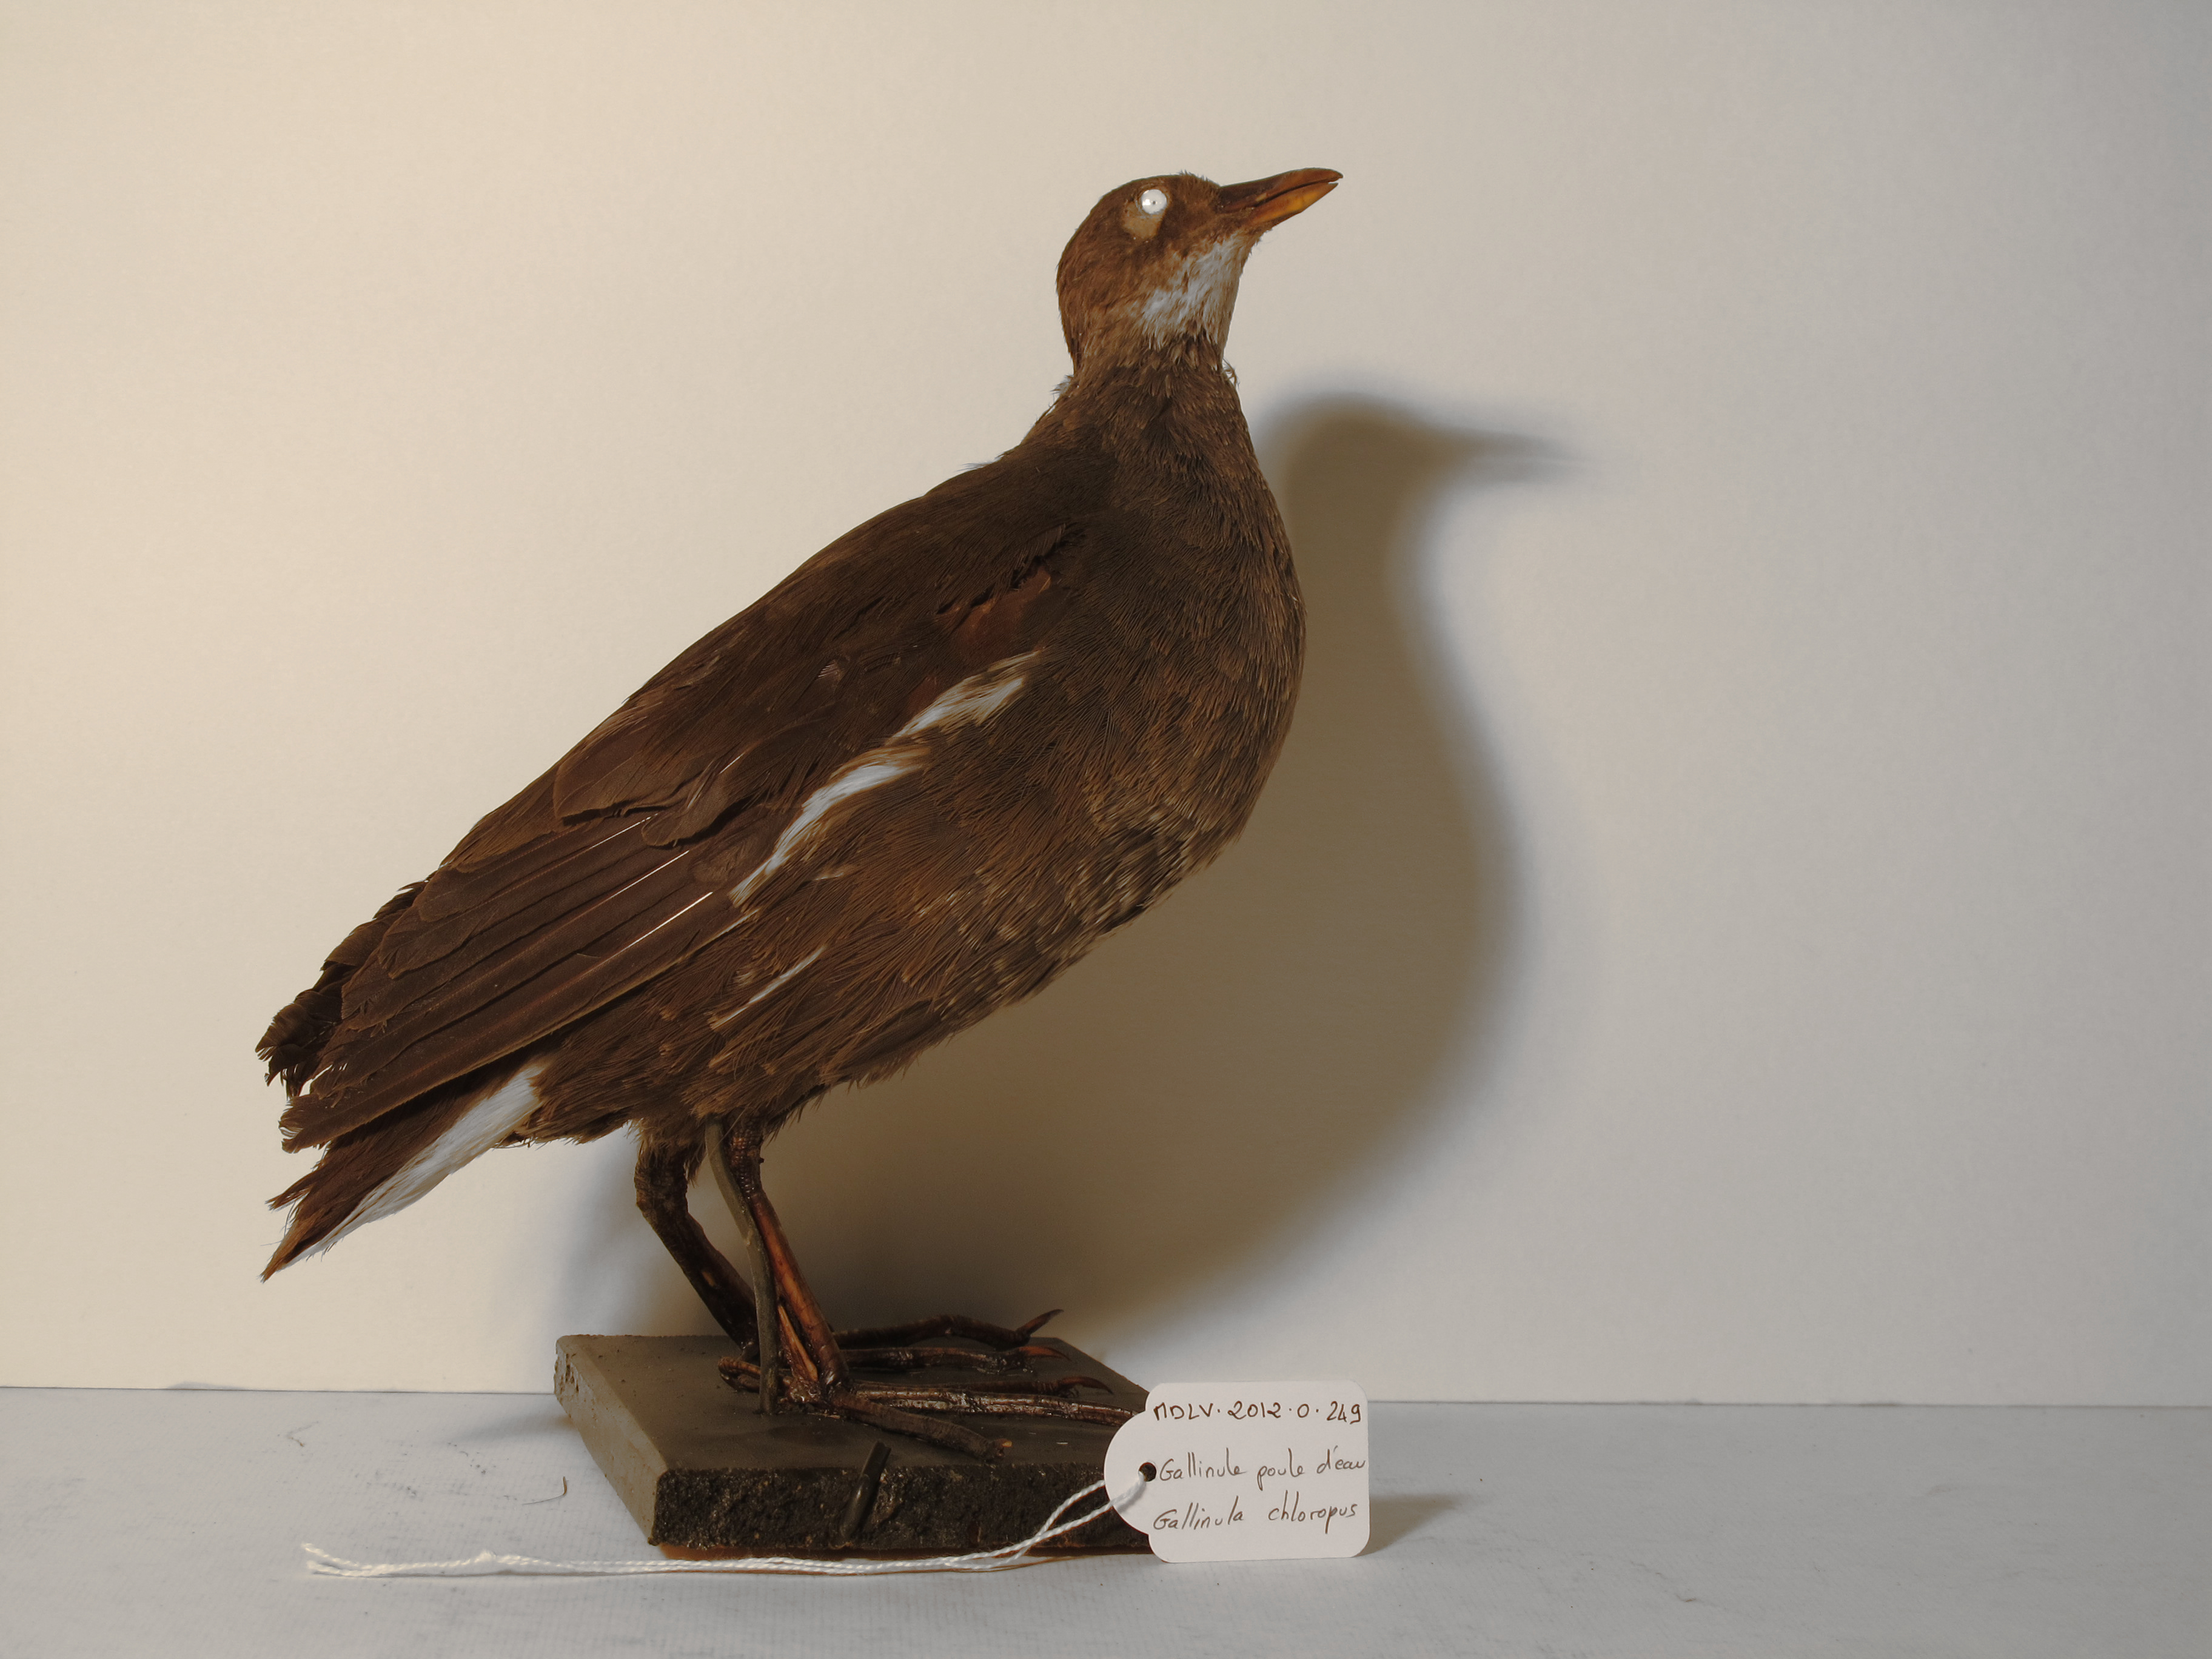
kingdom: Animalia
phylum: Chordata
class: Aves
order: Gruiformes
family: Rallidae
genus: Gallinula
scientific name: Gallinula chloropus
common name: Common Moorhen
